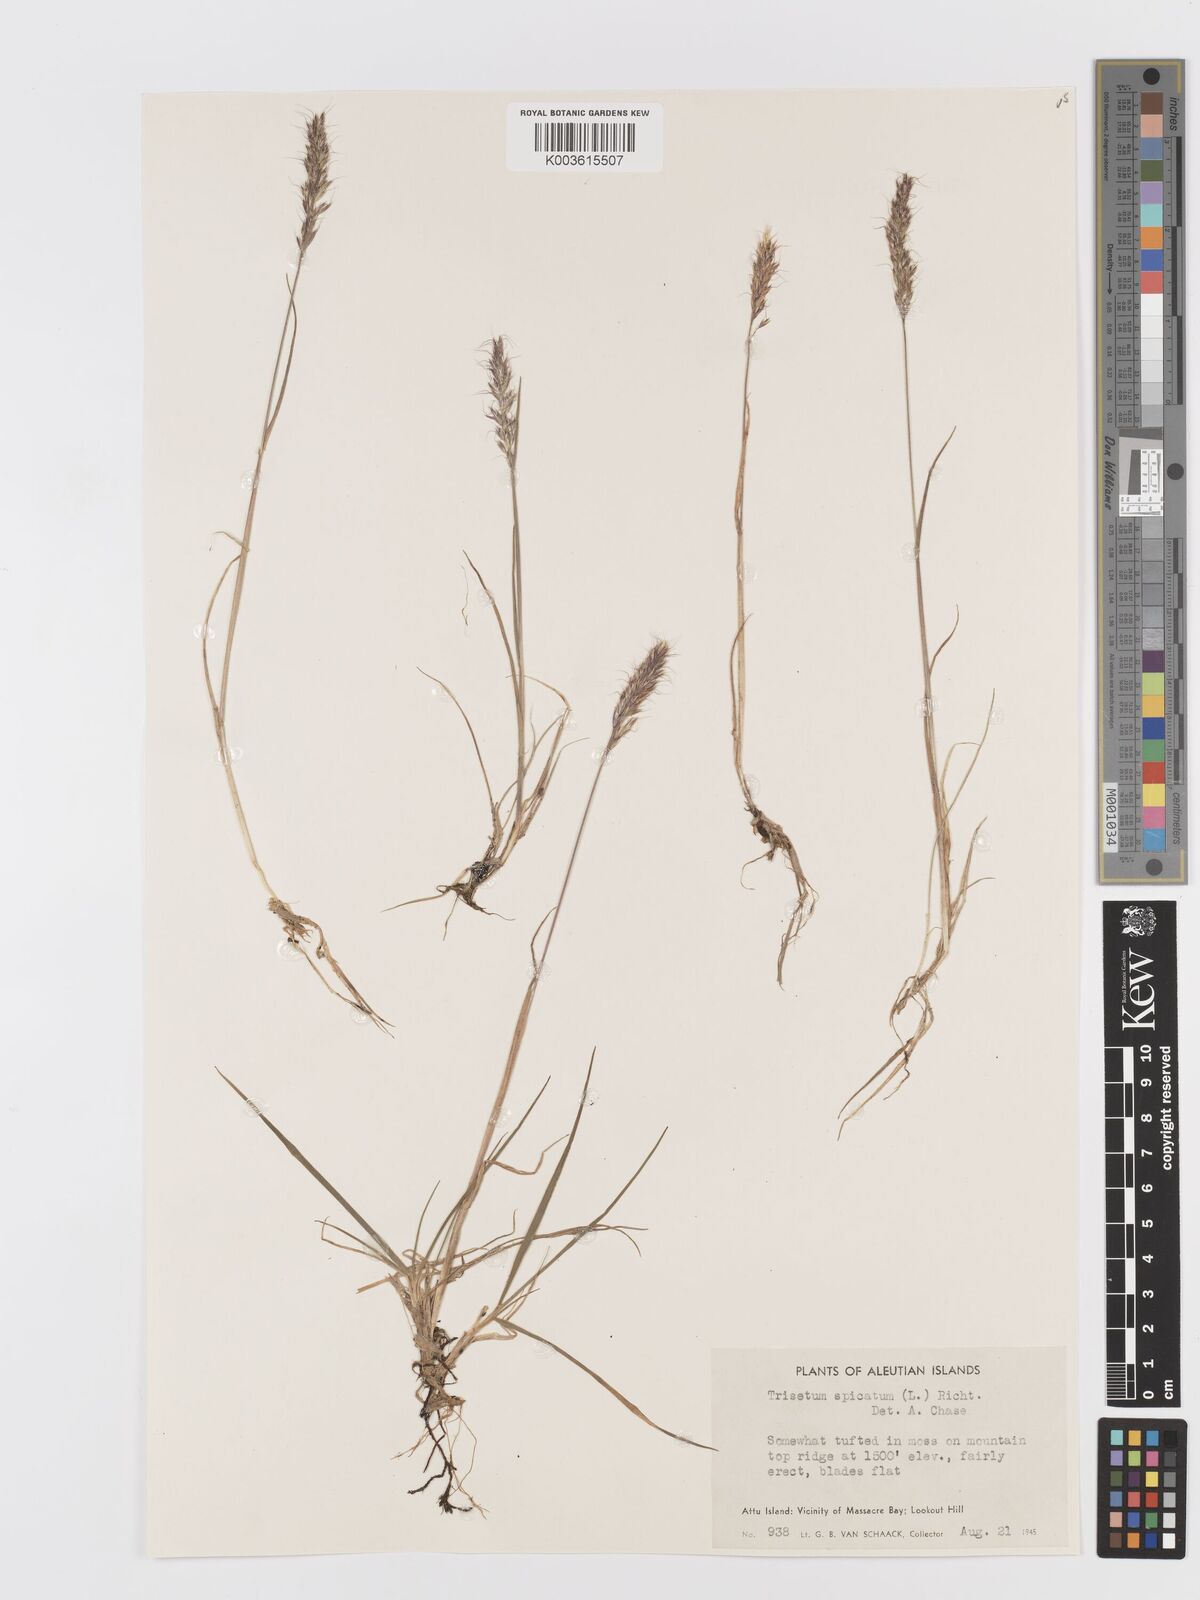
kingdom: Plantae
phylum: Tracheophyta
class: Liliopsida
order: Poales
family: Poaceae
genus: Koeleria
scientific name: Koeleria spicata
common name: Mountain trisetum
